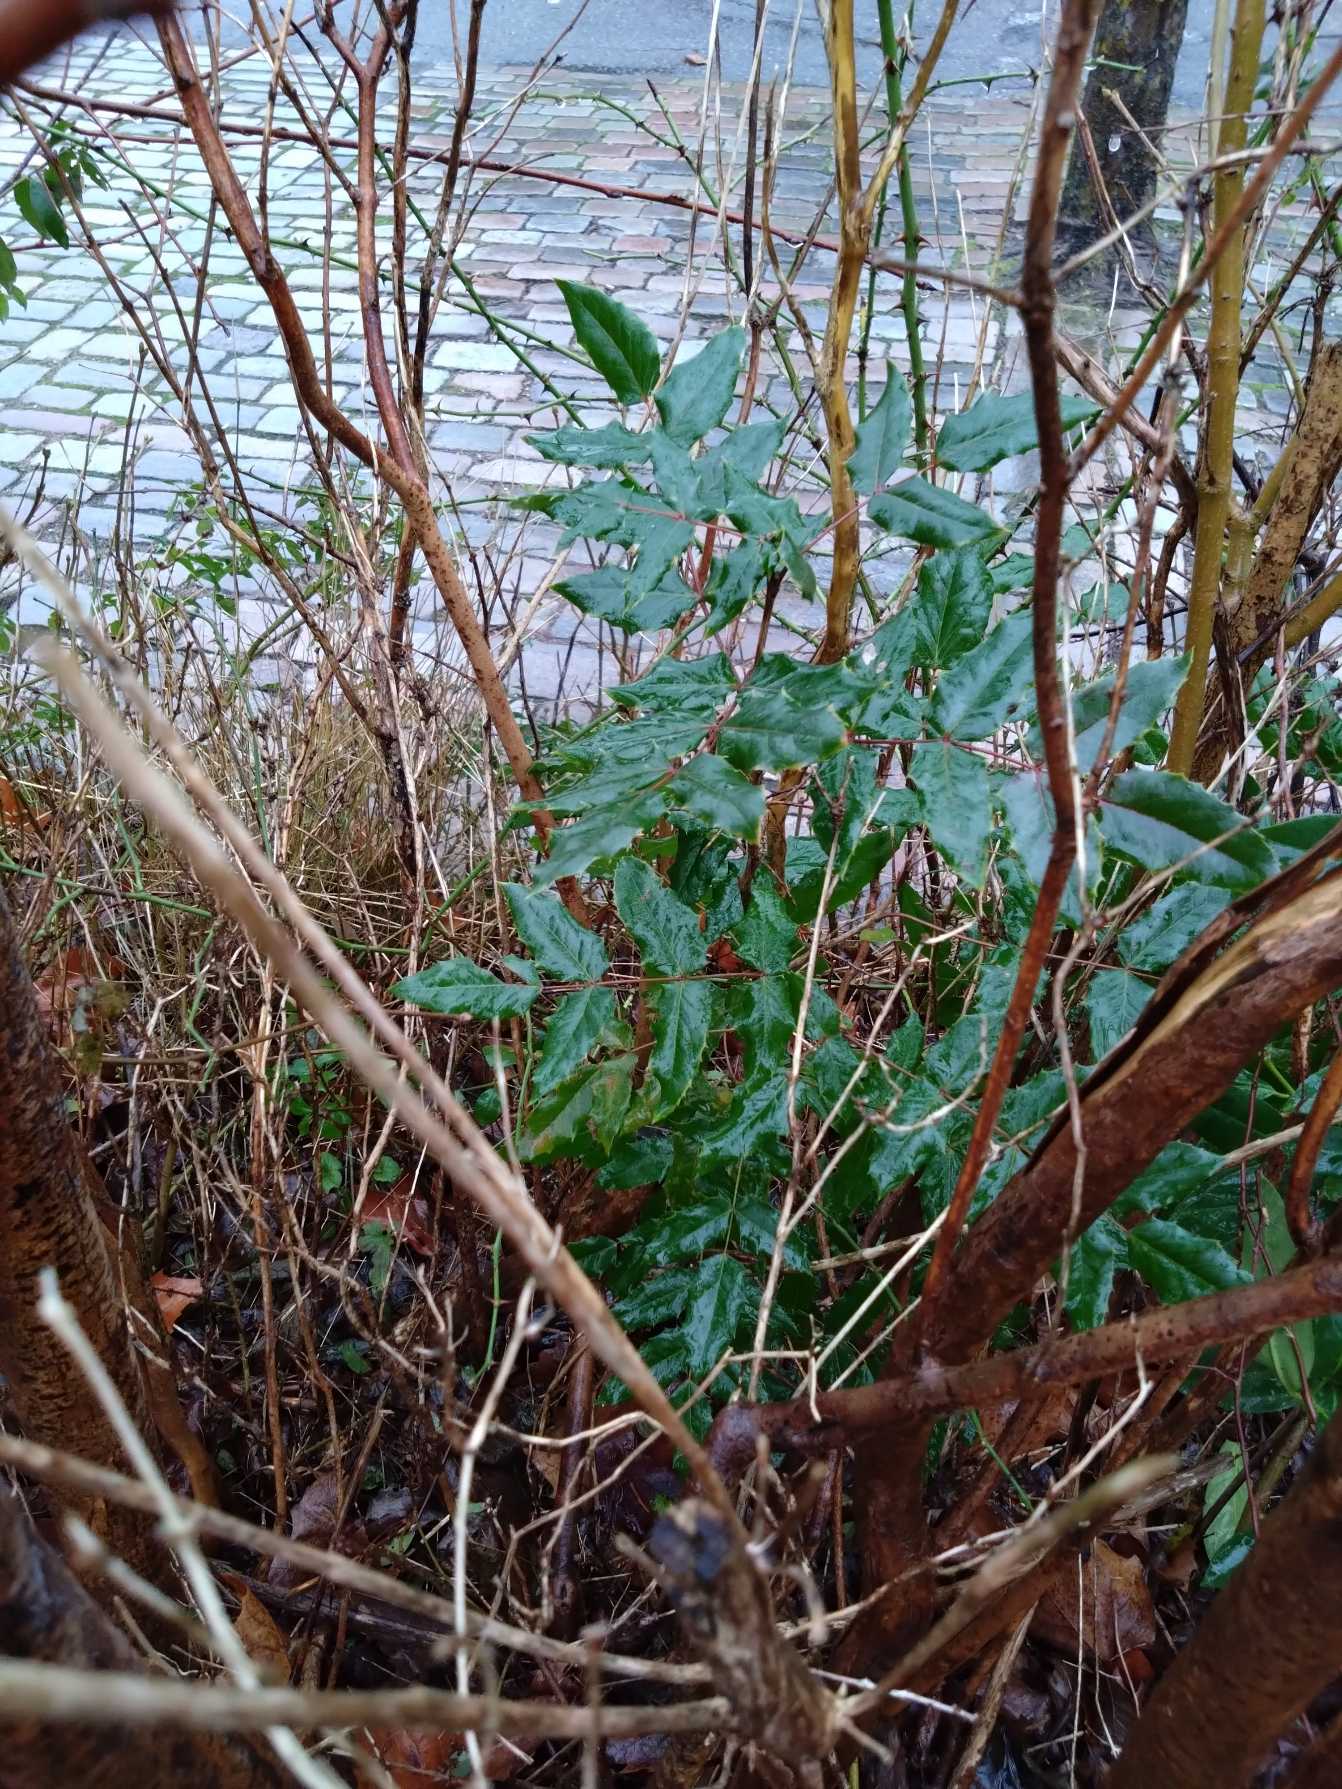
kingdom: Plantae
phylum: Tracheophyta
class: Magnoliopsida
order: Ranunculales
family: Berberidaceae
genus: Mahonia
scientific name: Mahonia aquifolium
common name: Almindelig mahonie
